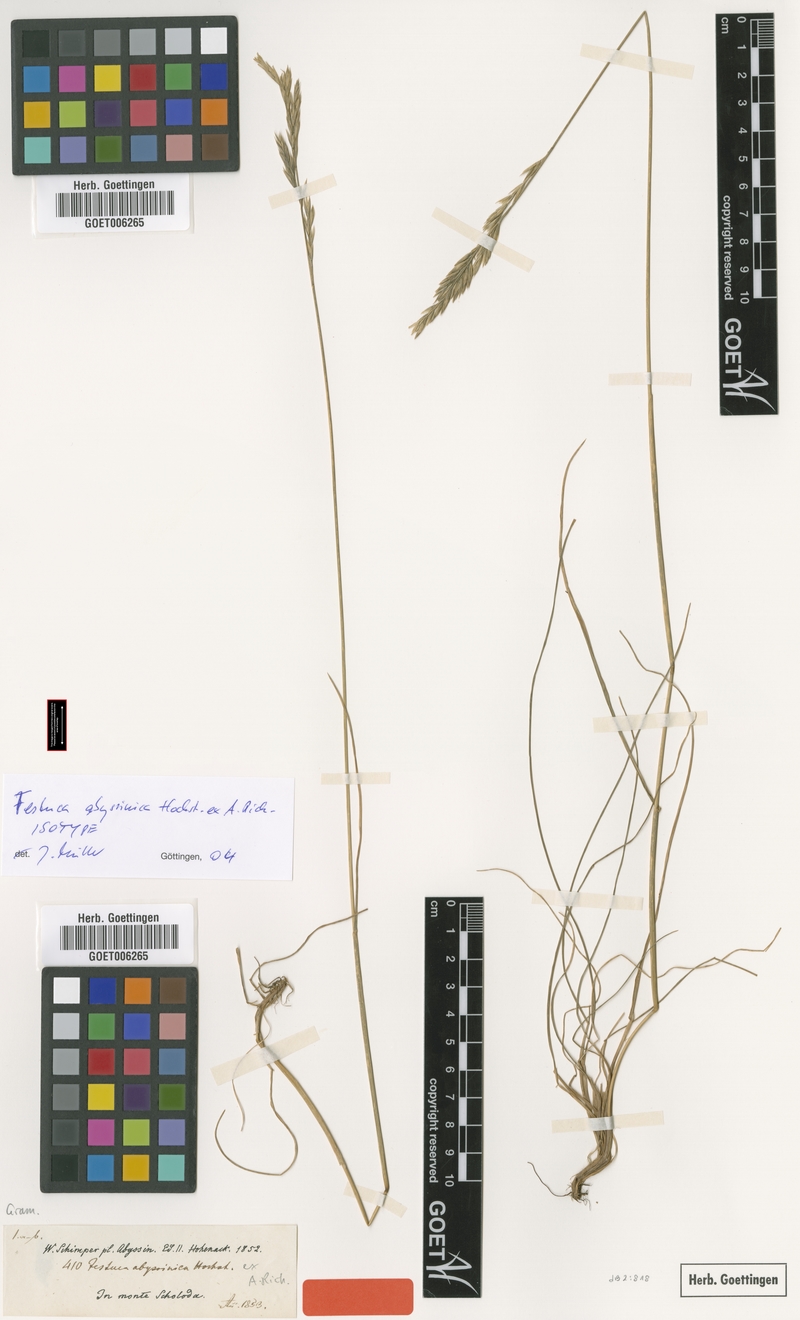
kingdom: Plantae
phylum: Tracheophyta
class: Liliopsida
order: Poales
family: Poaceae
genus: Festuca
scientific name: Festuca abyssinica
